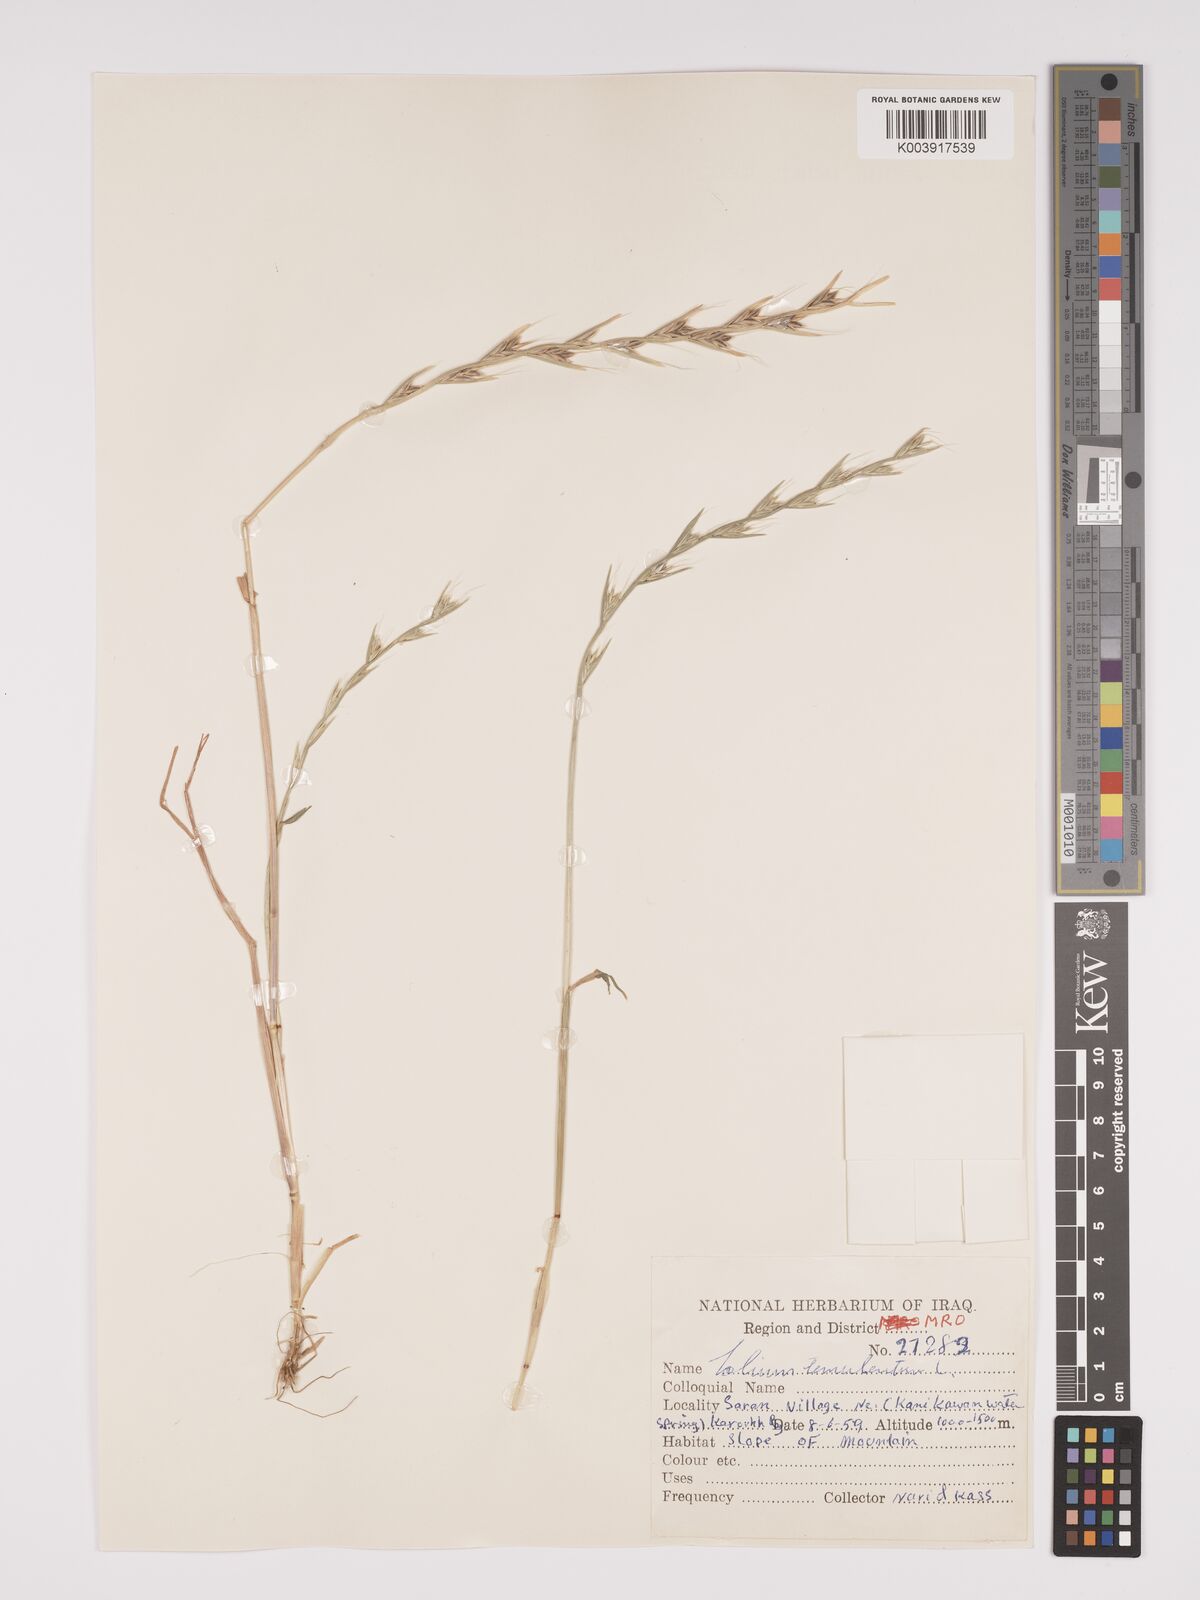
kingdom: Plantae
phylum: Tracheophyta
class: Liliopsida
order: Poales
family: Poaceae
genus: Lolium
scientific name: Lolium temulentum
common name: Darnel
